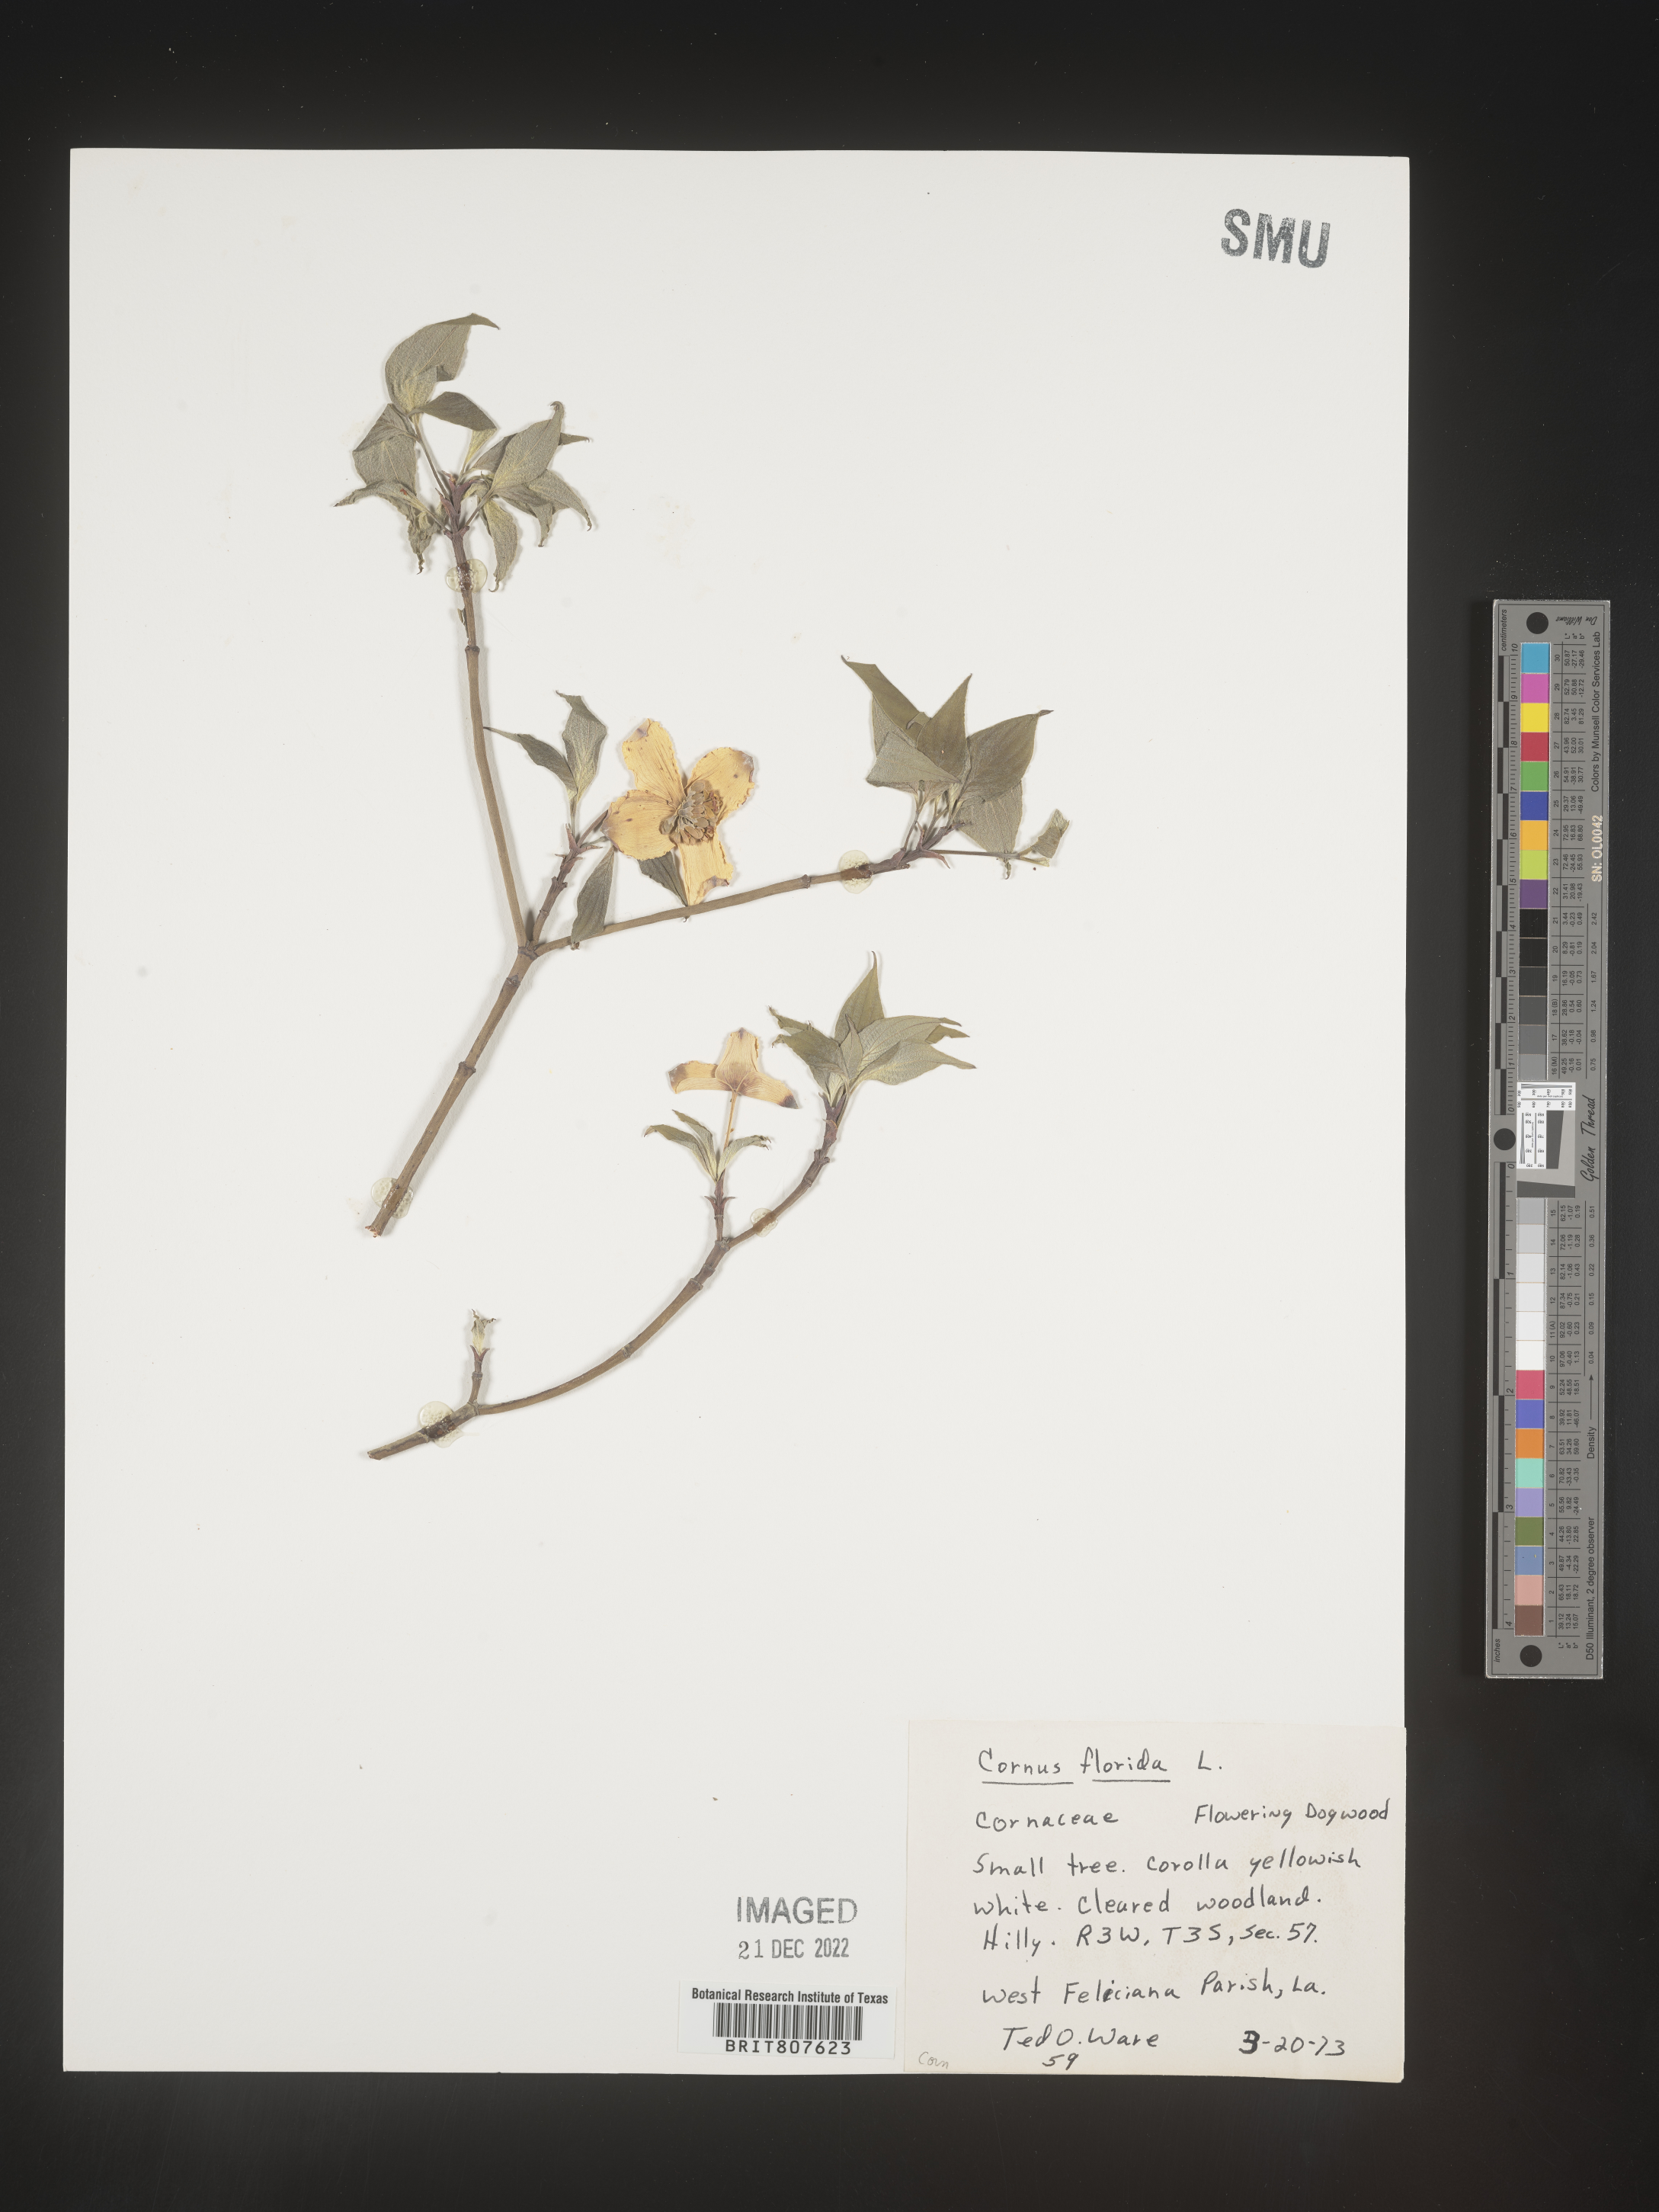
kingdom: Plantae
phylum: Tracheophyta
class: Magnoliopsida
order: Cornales
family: Cornaceae
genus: Cornus
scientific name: Cornus florida
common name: Flowering dogwood
